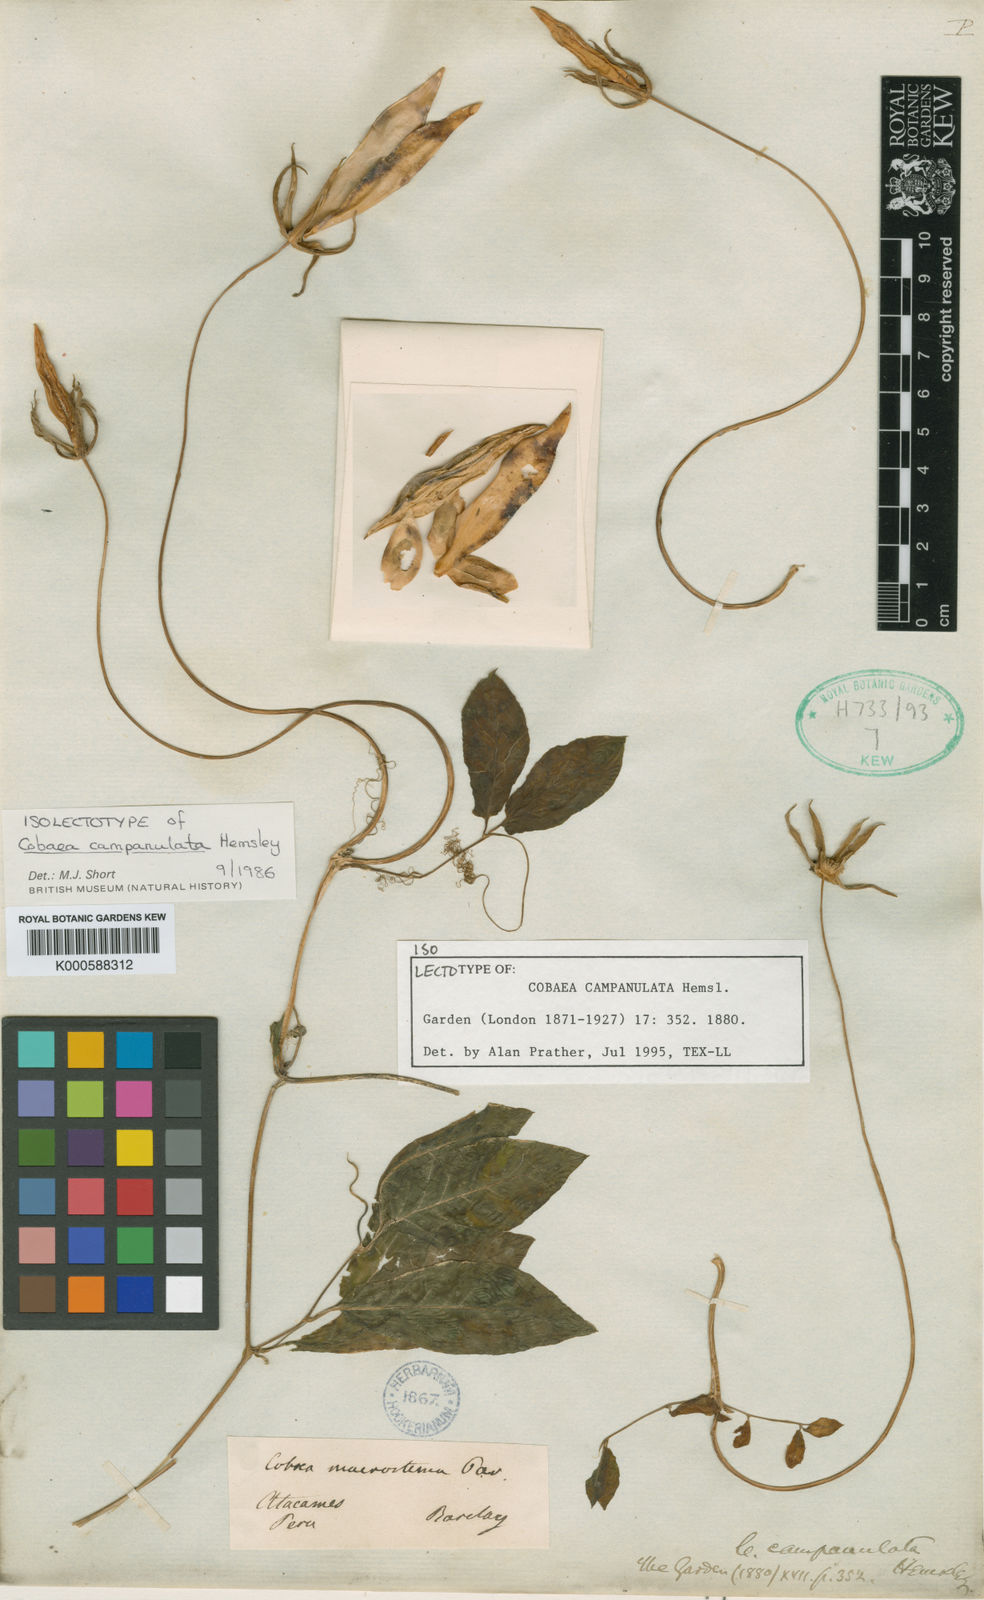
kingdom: Plantae
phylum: Tracheophyta
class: Magnoliopsida
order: Ericales
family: Polemoniaceae
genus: Cobaea
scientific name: Cobaea campanulata
